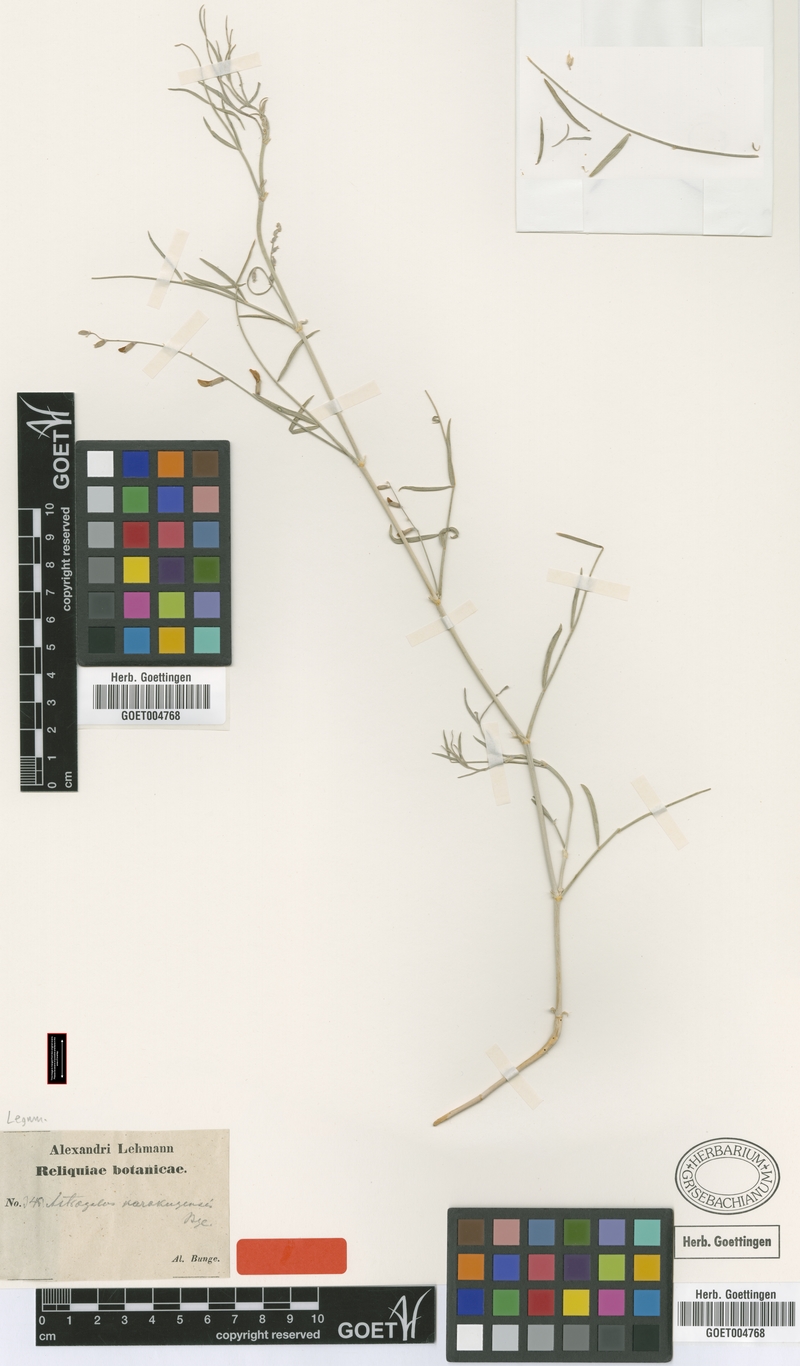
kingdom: Plantae
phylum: Tracheophyta
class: Magnoliopsida
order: Fabales
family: Fabaceae
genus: Astragalus
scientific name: Astragalus karakugensis
